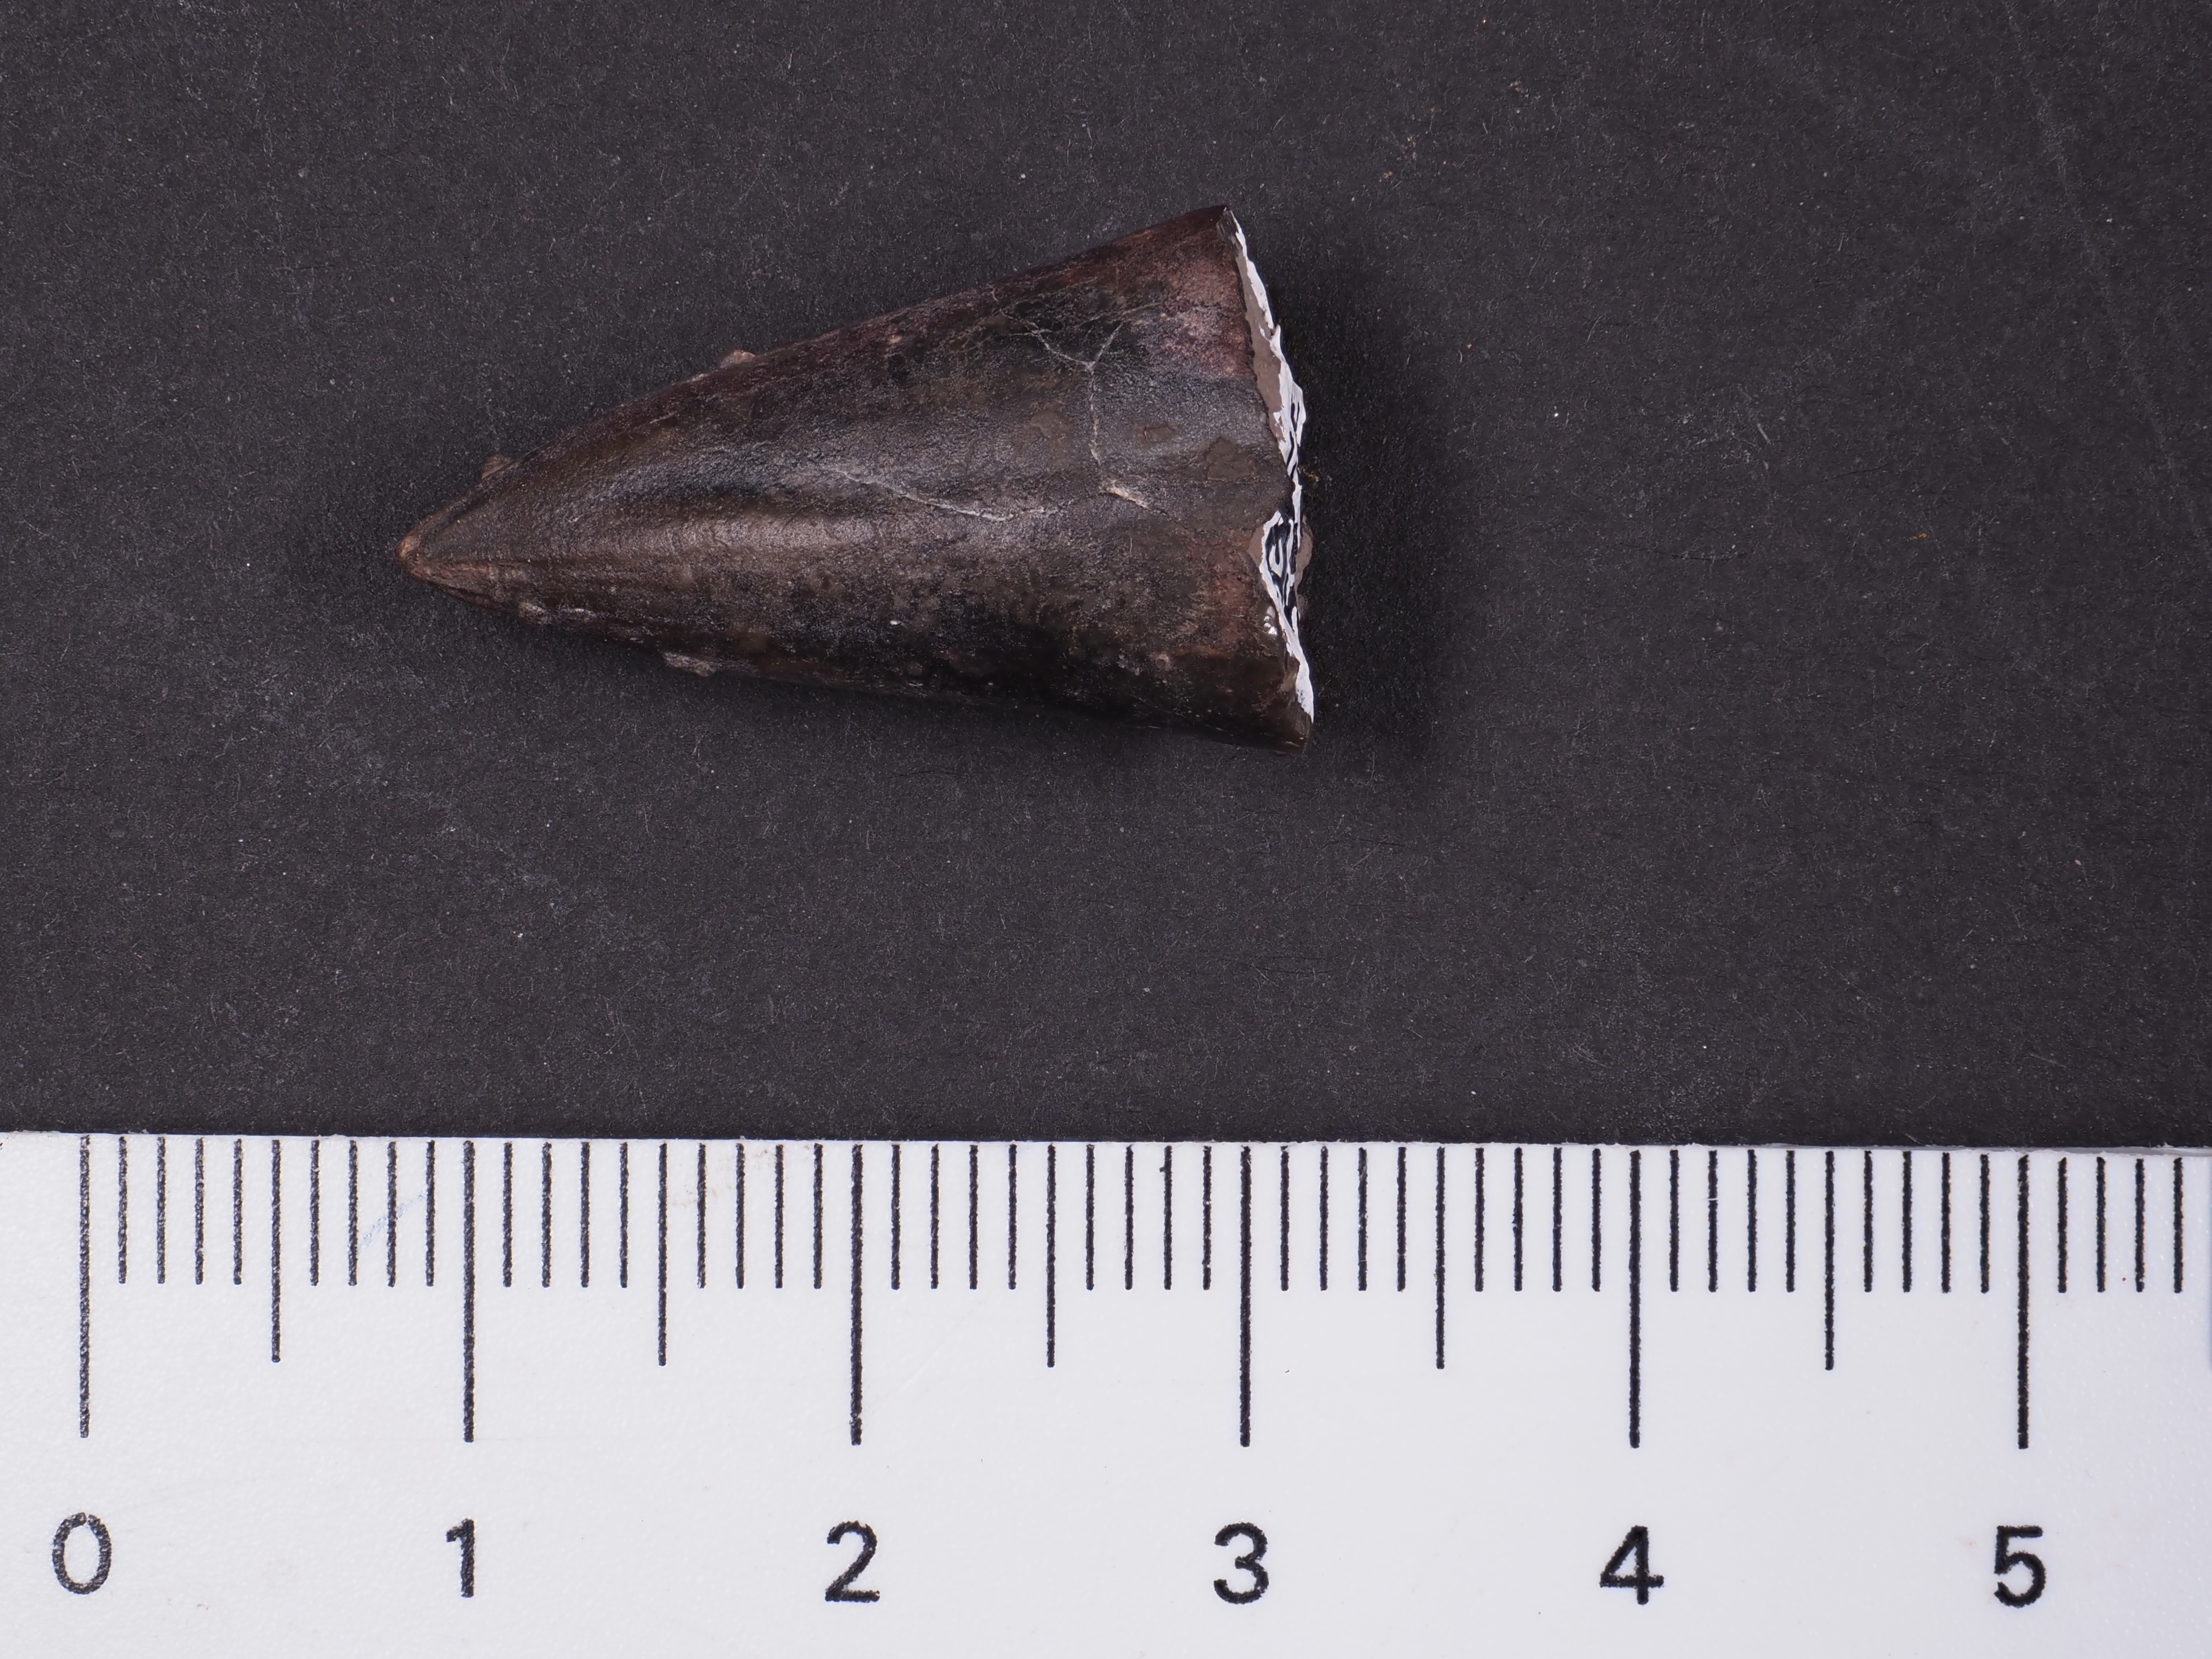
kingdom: Animalia
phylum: Mollusca
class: Cephalopoda
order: Belemnitida
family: Salpingoteuthididae
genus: Salpingoteuthis
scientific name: Salpingoteuthis
